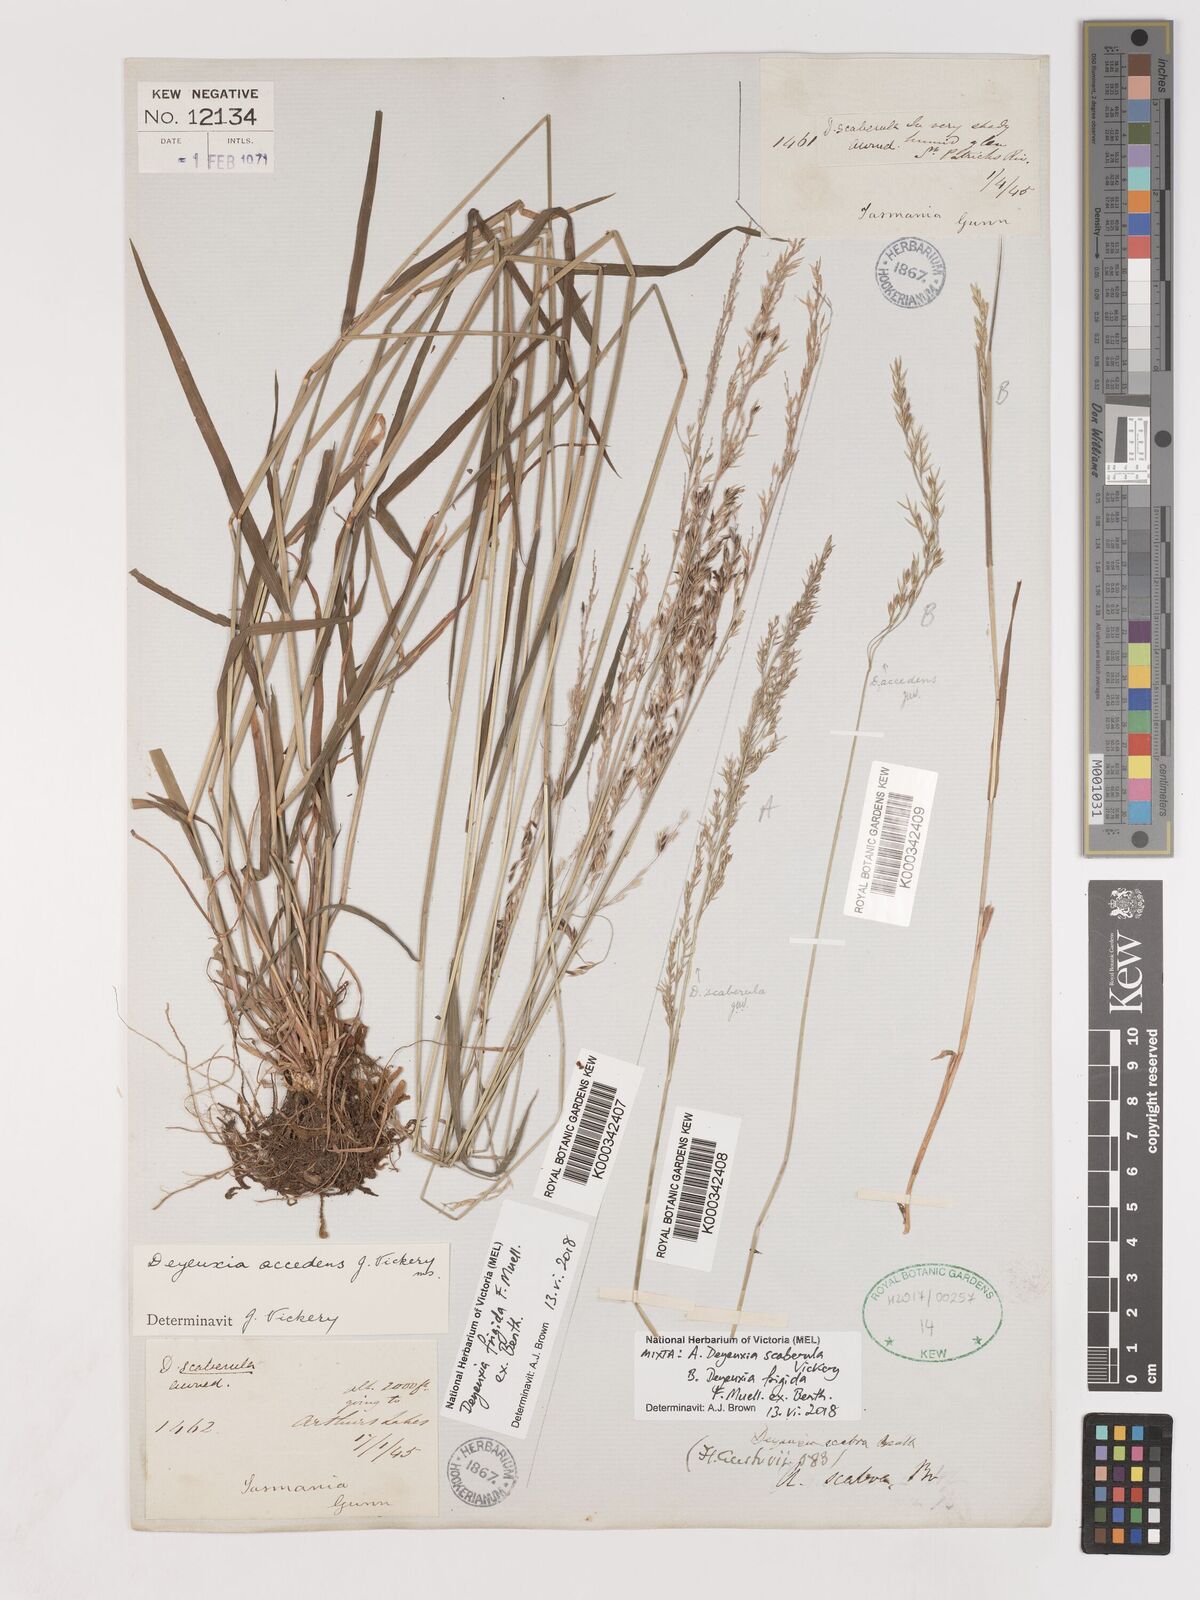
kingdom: Plantae
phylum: Tracheophyta
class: Liliopsida
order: Poales
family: Poaceae
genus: Calamagrostis
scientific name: Calamagrostis austroscaberula
